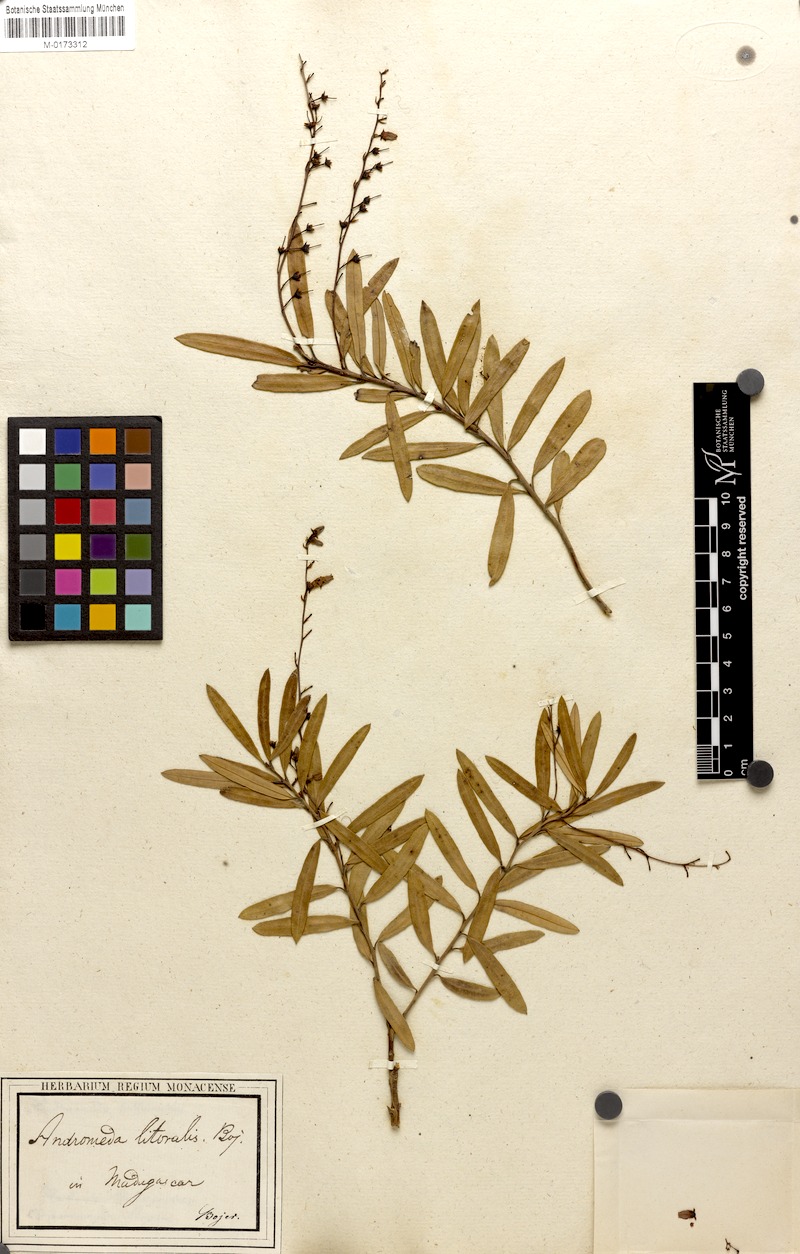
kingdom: Plantae
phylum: Tracheophyta
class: Magnoliopsida
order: Ericales
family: Ericaceae
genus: Agarista
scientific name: Agarista salicifolia
